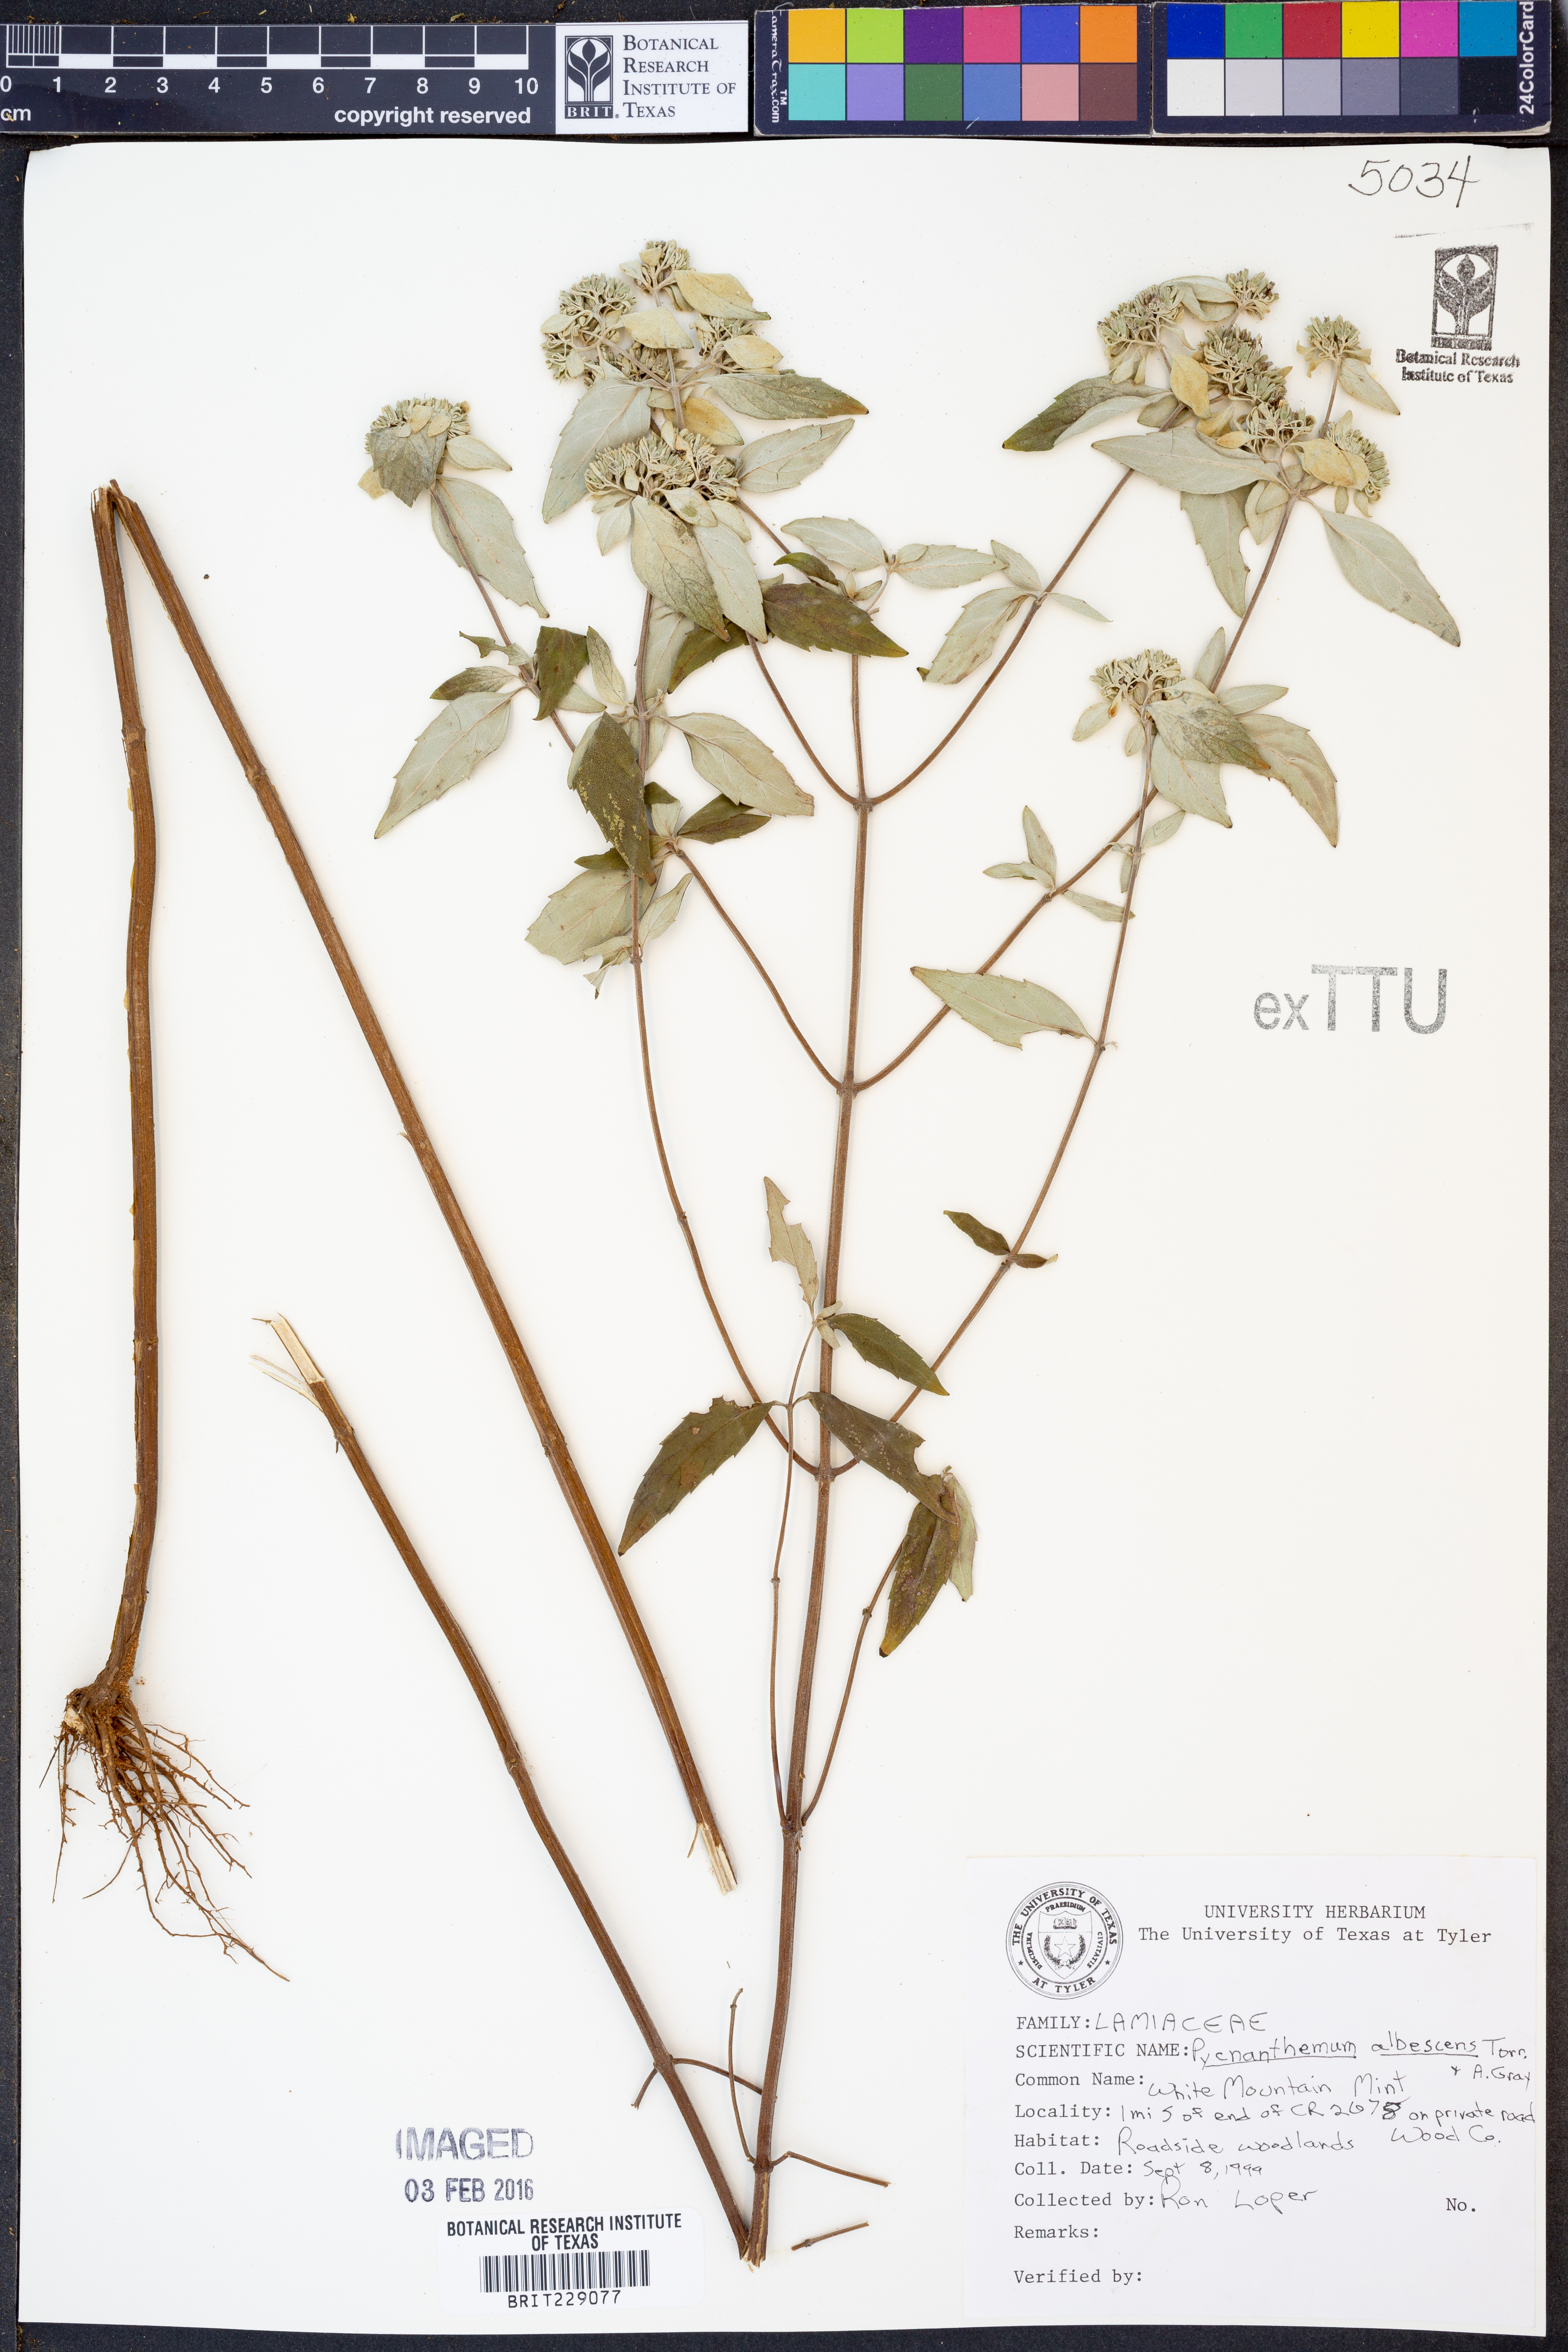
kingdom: Plantae
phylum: Tracheophyta
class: Magnoliopsida
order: Lamiales
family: Lamiaceae
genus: Pycnanthemum
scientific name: Pycnanthemum albescens
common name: White-leaf mountain-mint
